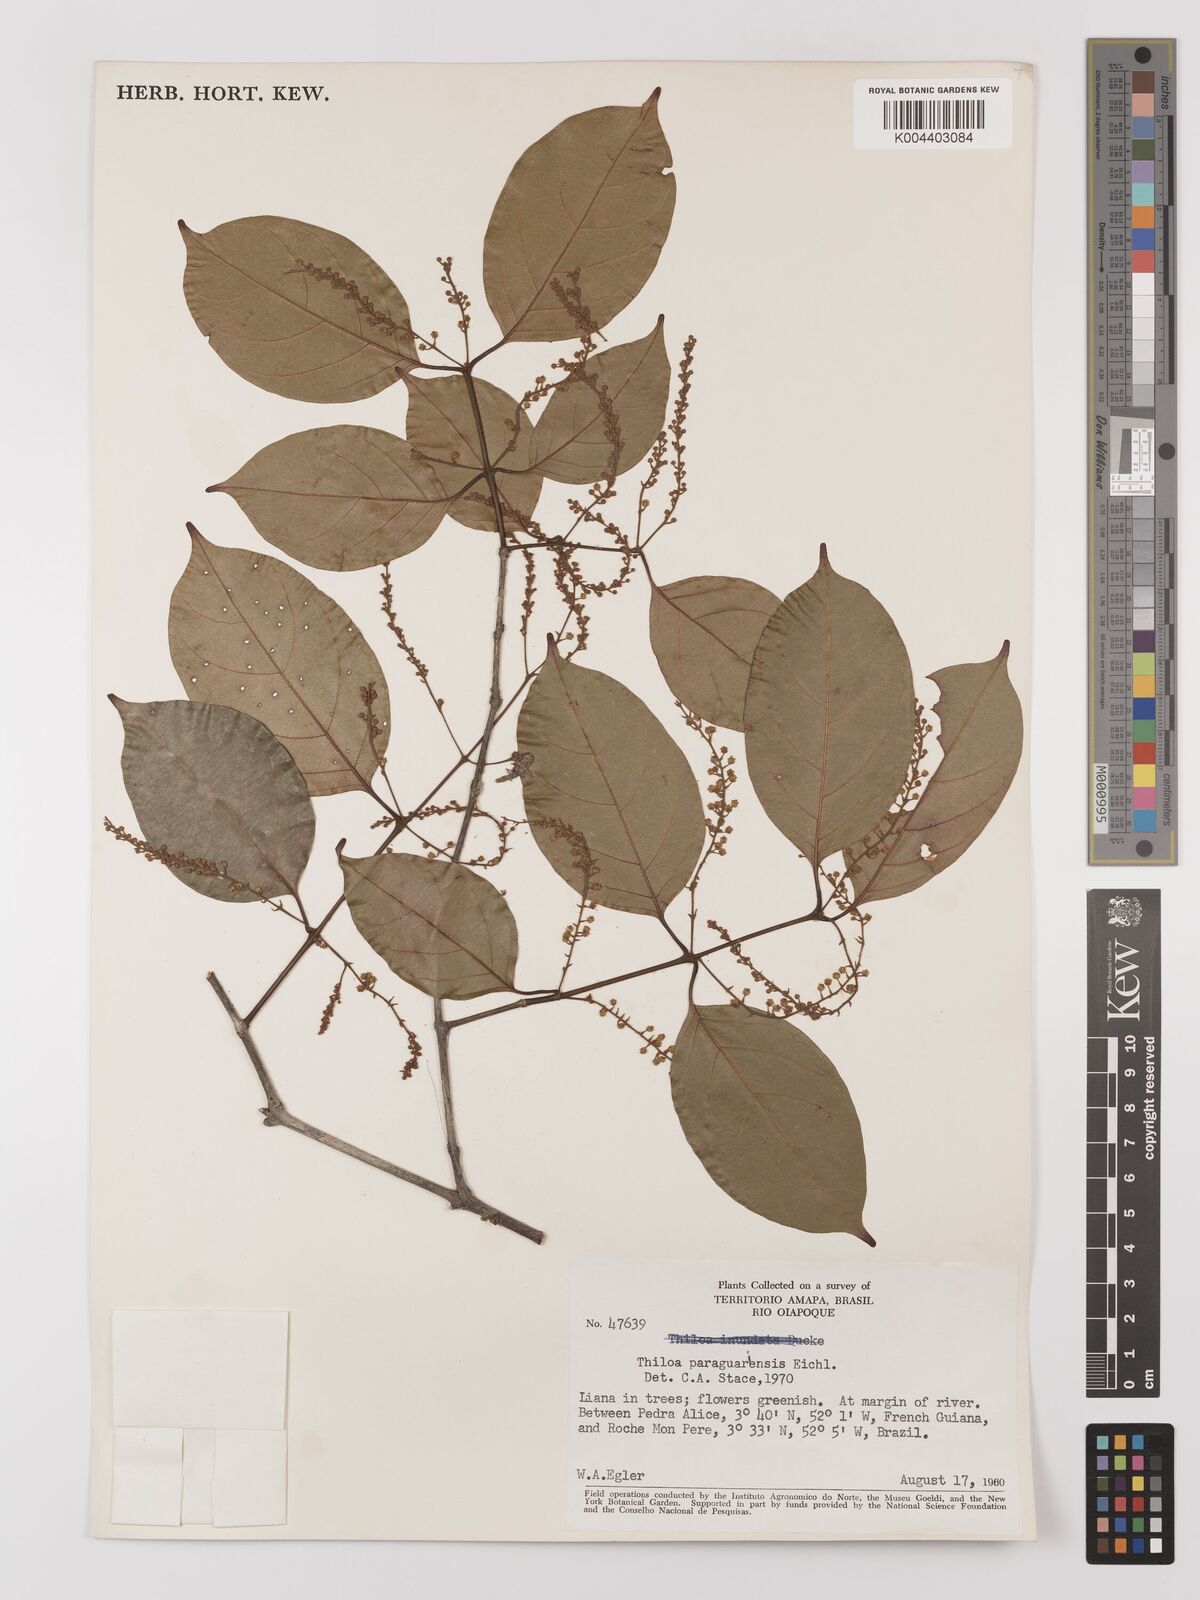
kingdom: Plantae
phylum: Tracheophyta
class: Magnoliopsida
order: Myrtales
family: Combretaceae
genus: Combretum
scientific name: Combretum paraguariense
